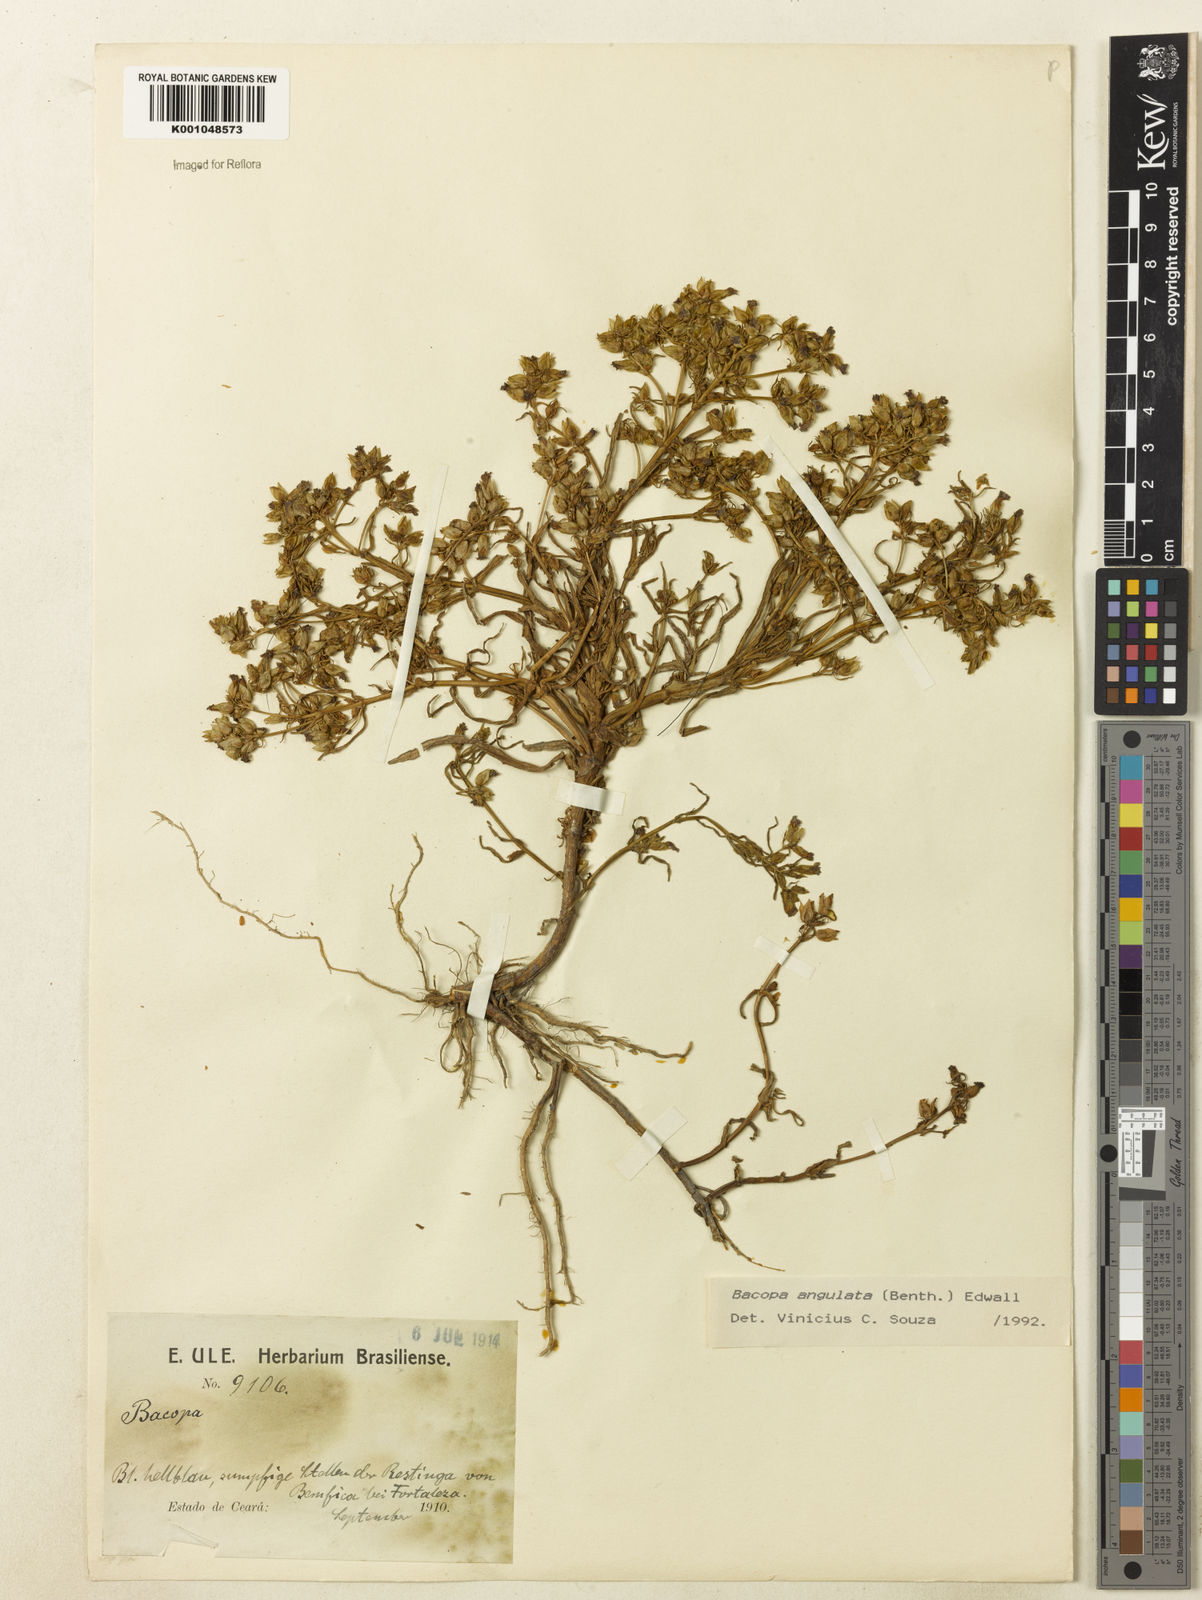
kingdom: Plantae
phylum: Tracheophyta
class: Magnoliopsida
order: Lamiales
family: Plantaginaceae
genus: Bacopa
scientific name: Bacopa angulata
